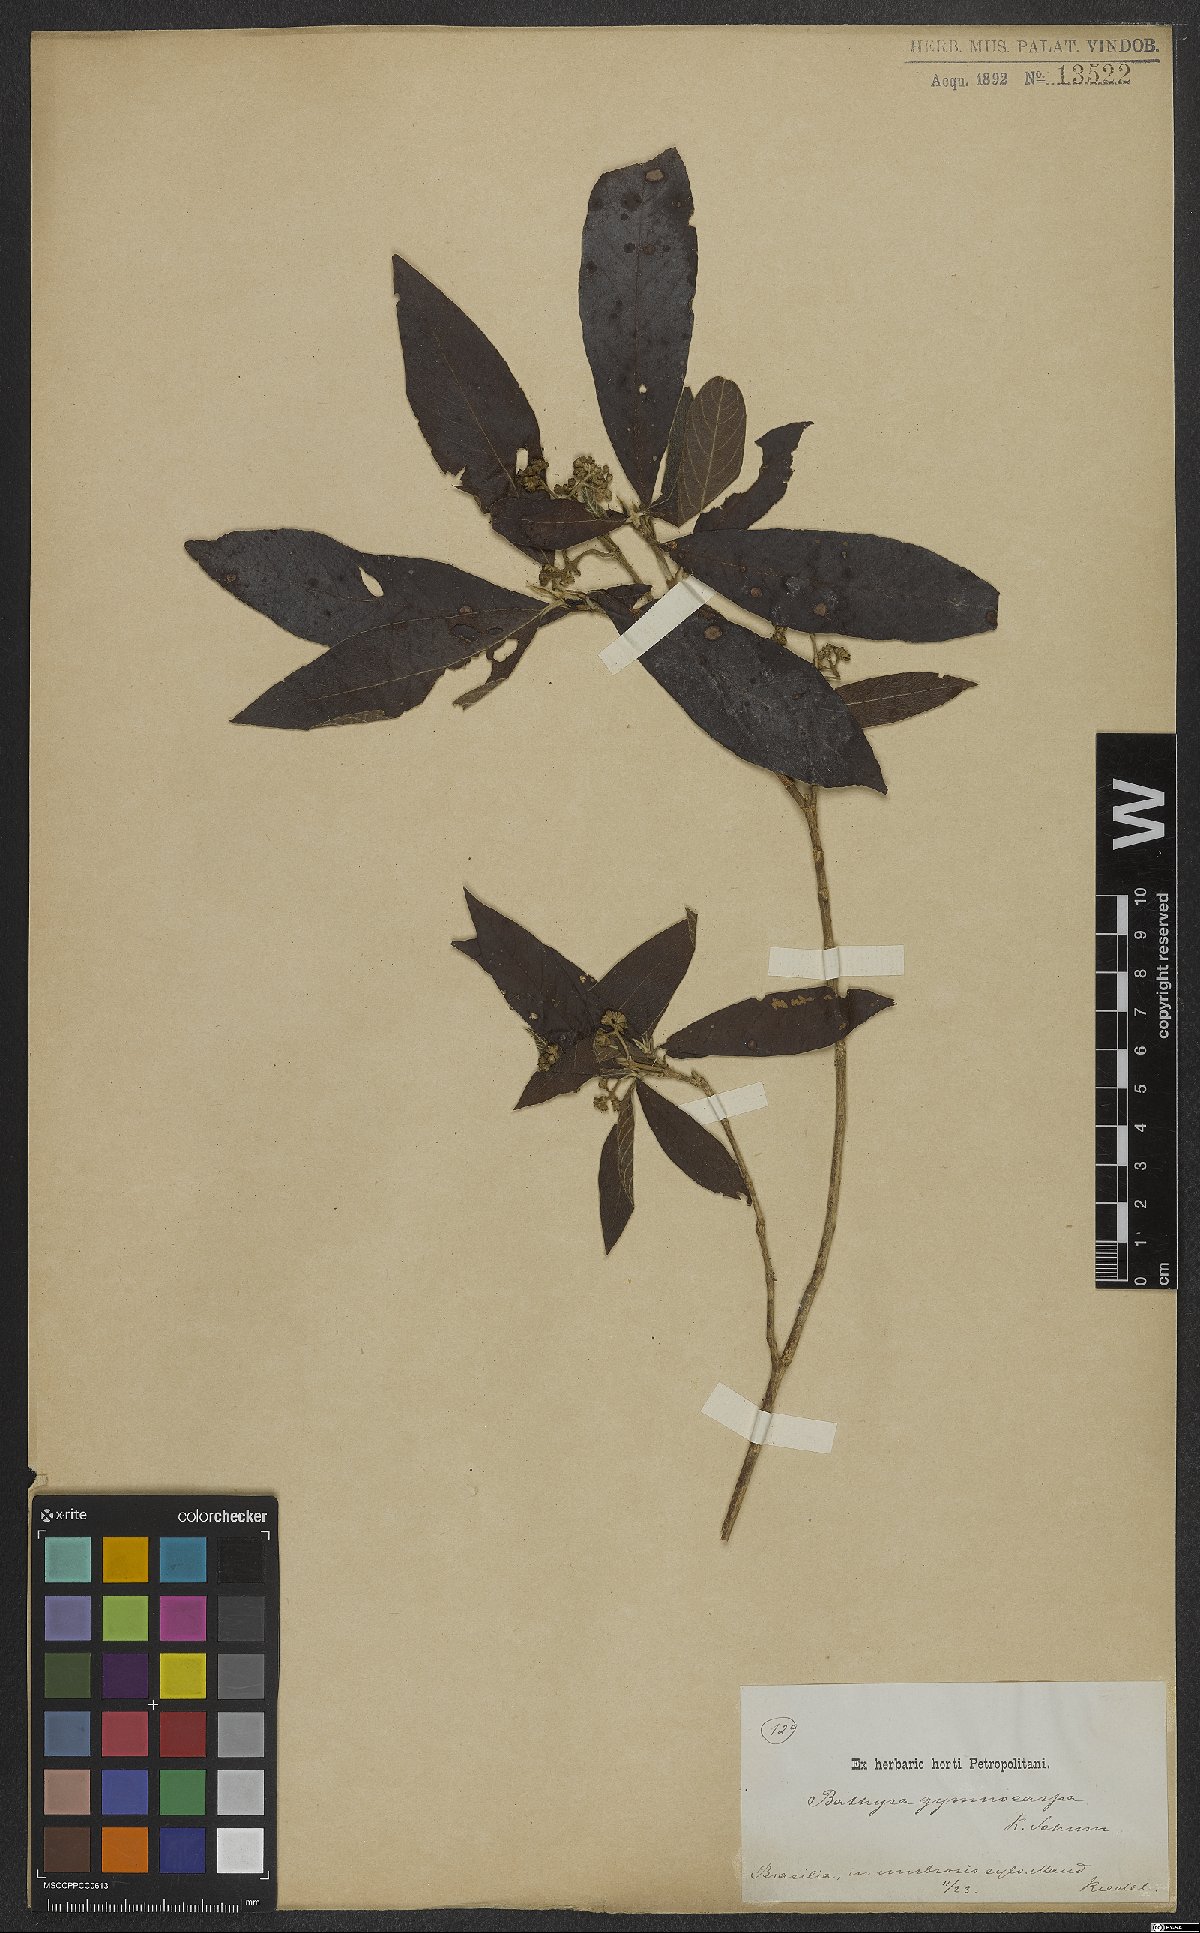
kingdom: Plantae
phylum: Tracheophyta
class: Magnoliopsida
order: Gentianales
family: Rubiaceae
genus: Bathysa
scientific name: Bathysa gymnocarpa
